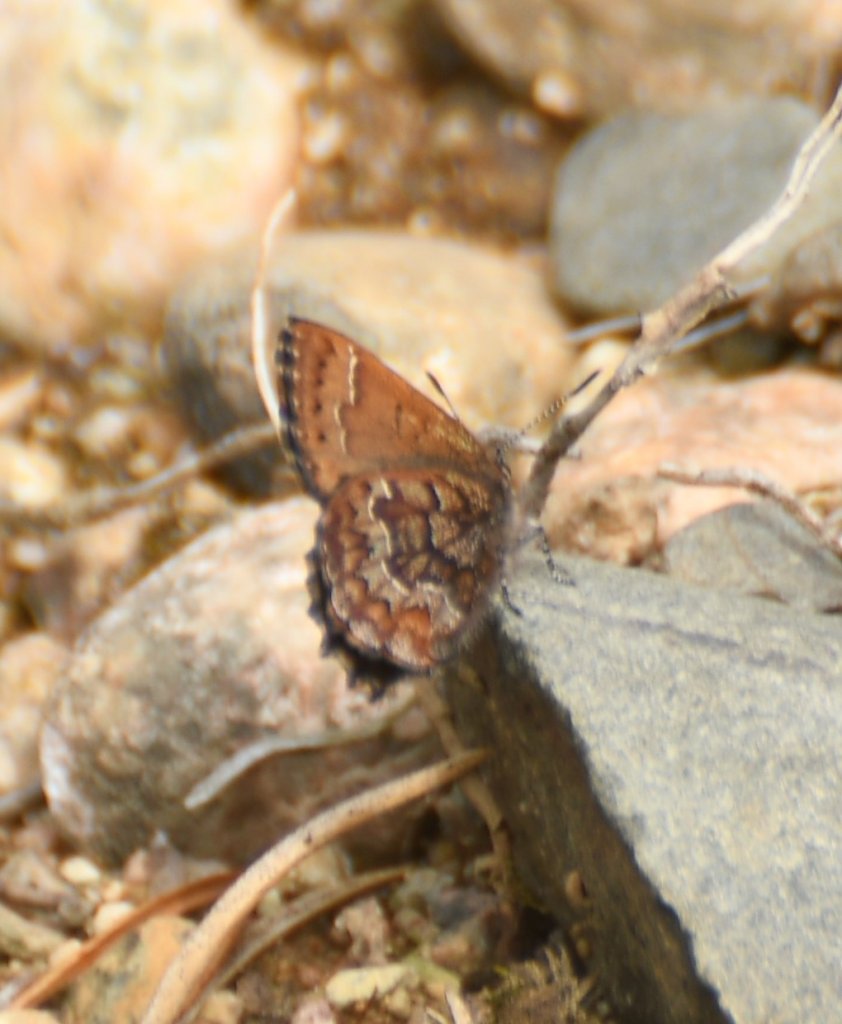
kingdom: Animalia
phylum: Arthropoda
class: Insecta
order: Lepidoptera
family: Lycaenidae
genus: Incisalia
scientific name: Incisalia niphon
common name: Eastern Pine Elfin
